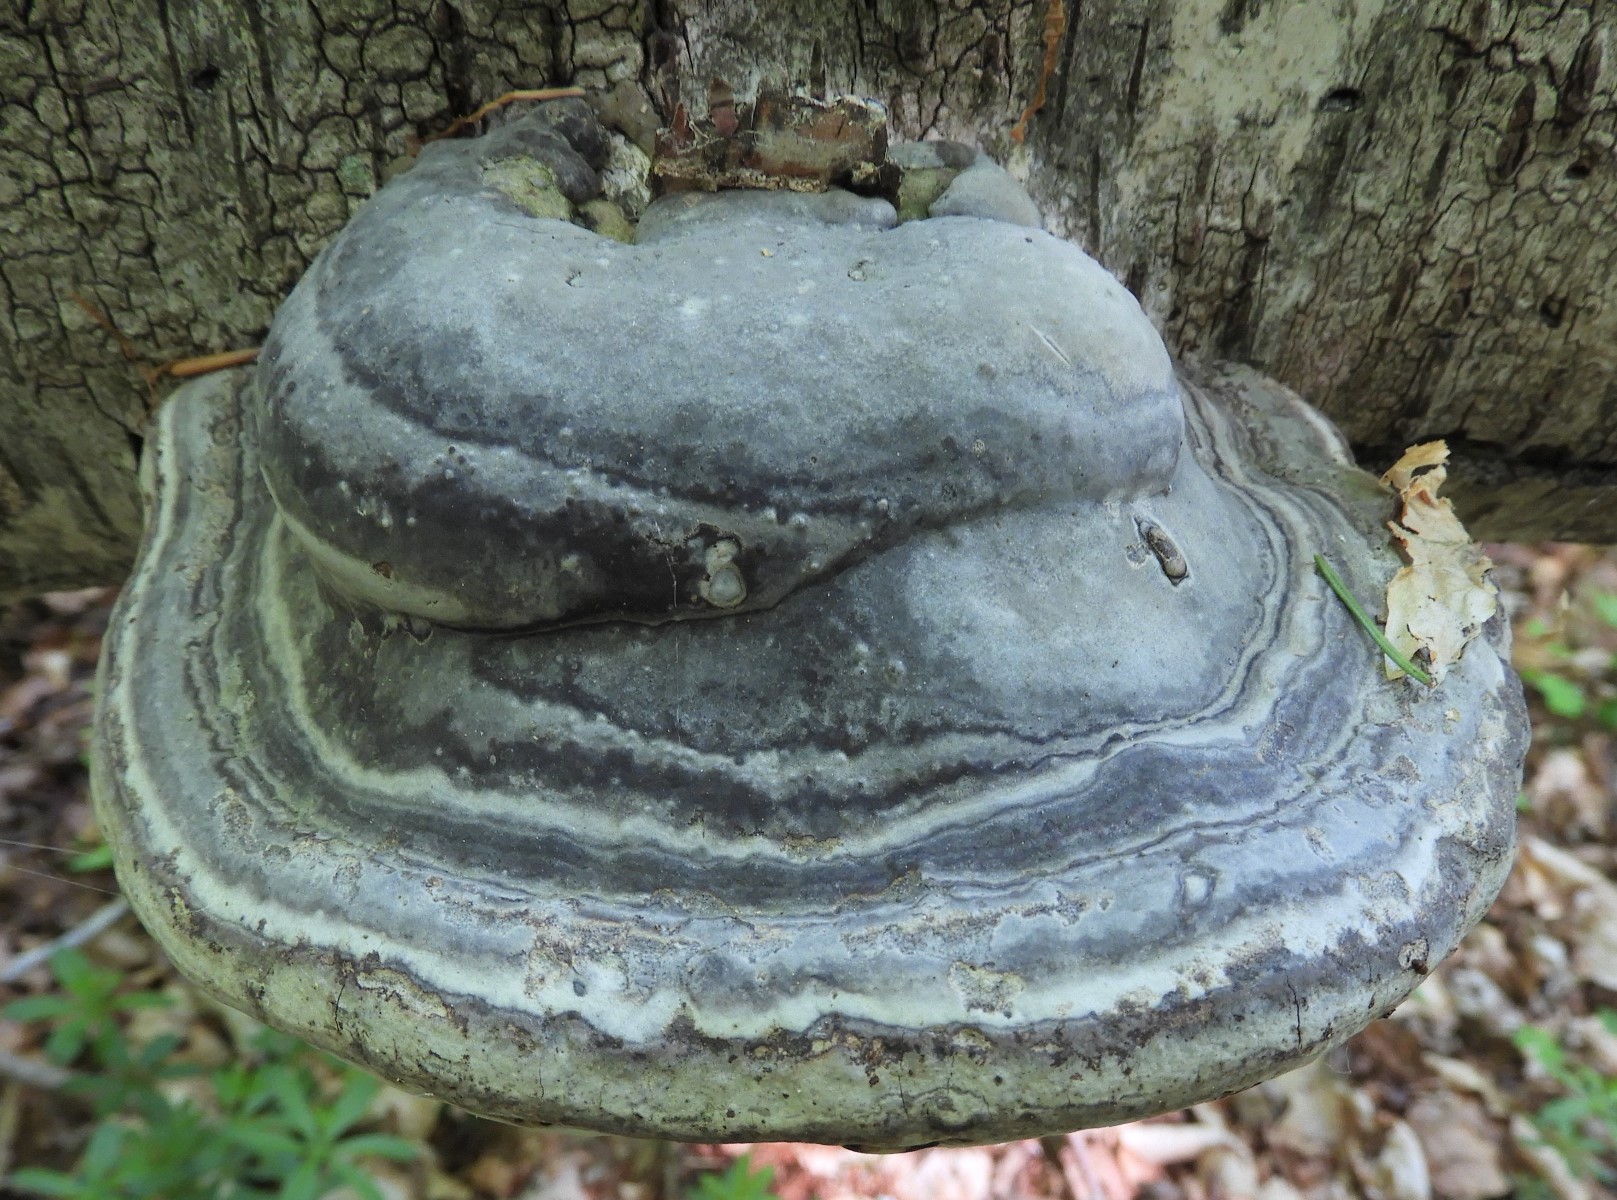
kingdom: Fungi
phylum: Basidiomycota
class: Agaricomycetes
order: Polyporales
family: Polyporaceae
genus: Fomes
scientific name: Fomes fomentarius
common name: tøndersvamp
